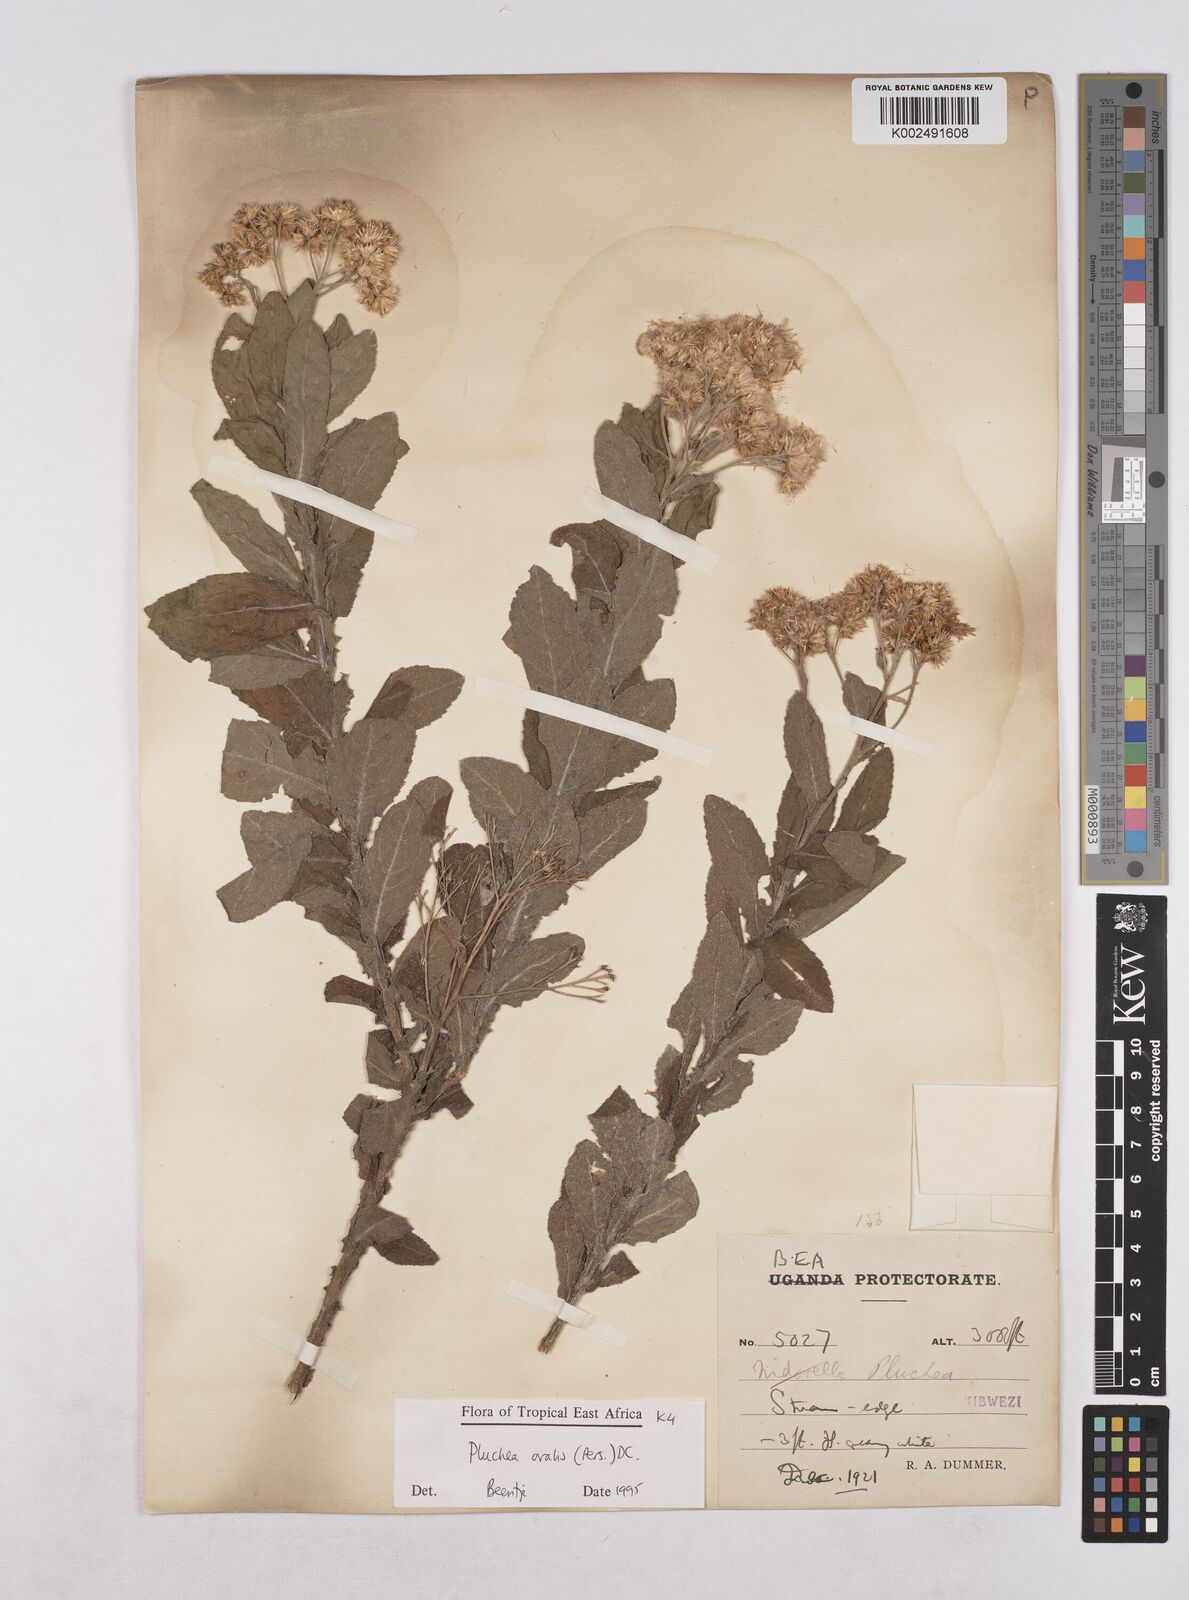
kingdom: Plantae
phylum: Tracheophyta
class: Magnoliopsida
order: Asterales
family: Asteraceae
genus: Pluchea
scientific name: Pluchea ovalis
